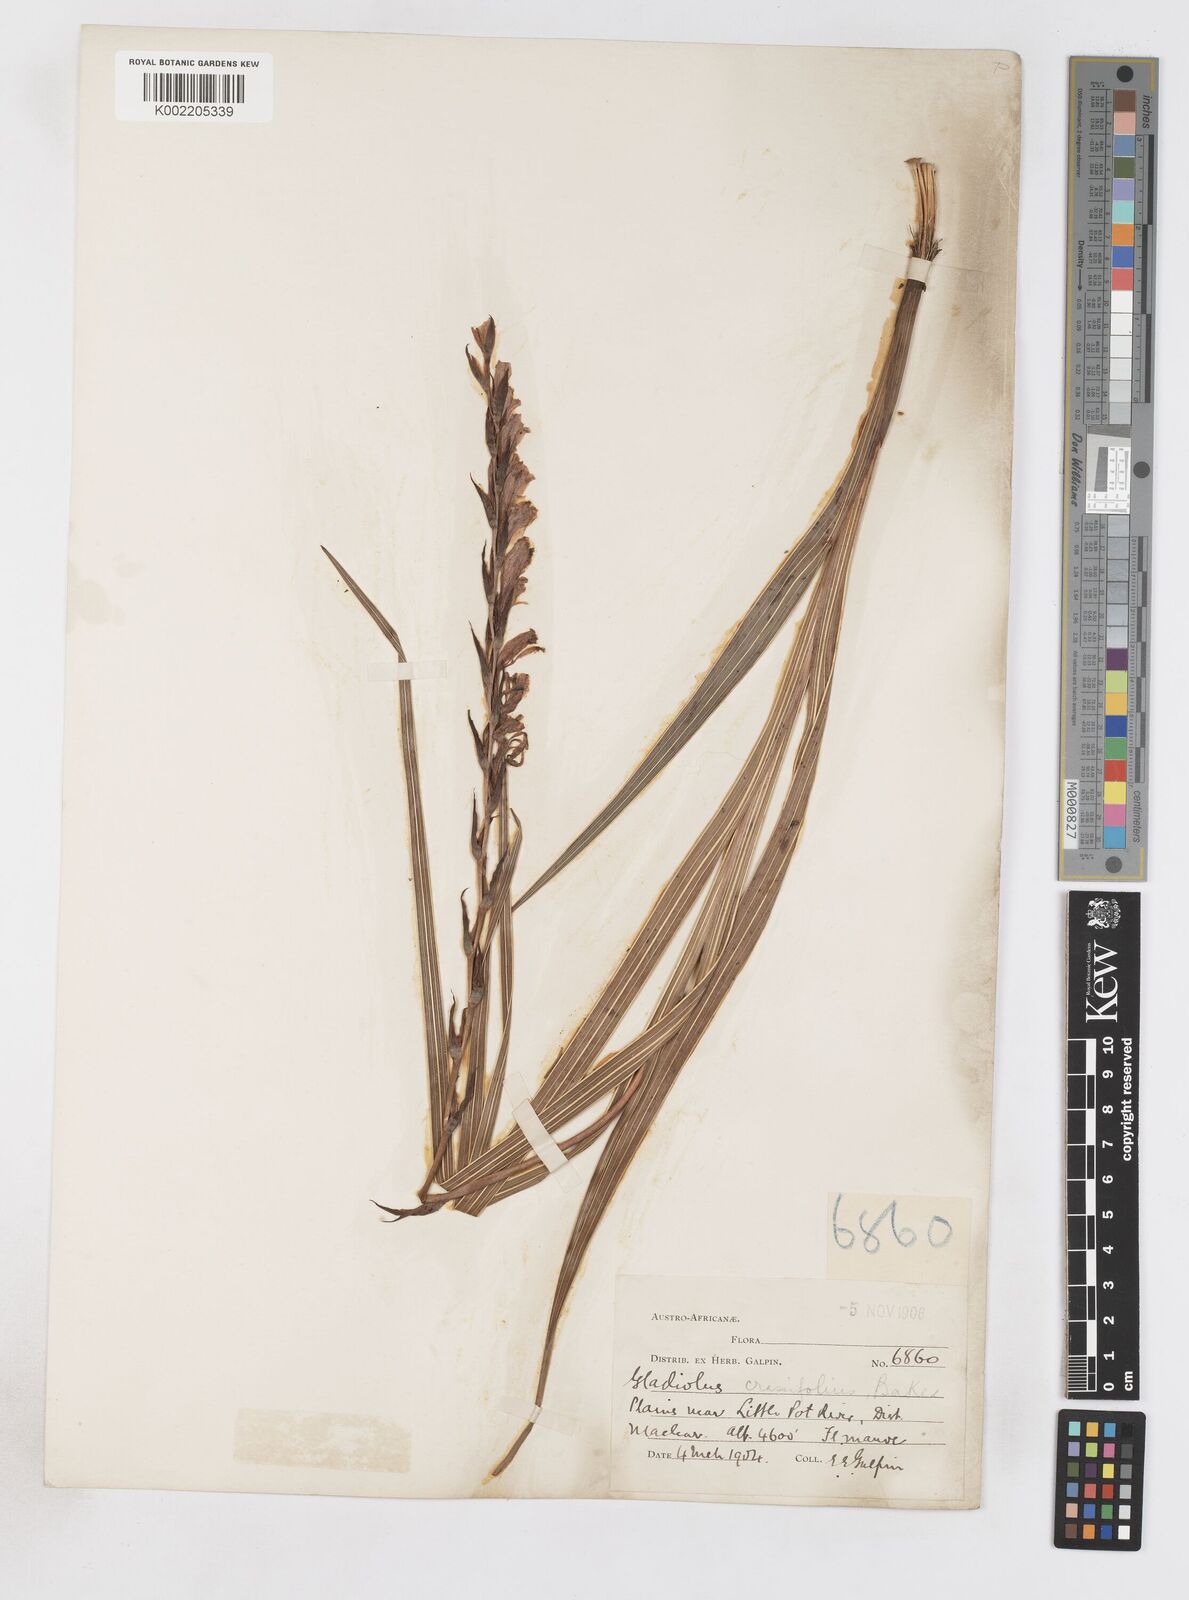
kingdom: Plantae
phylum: Tracheophyta
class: Liliopsida
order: Asparagales
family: Iridaceae
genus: Gladiolus
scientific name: Gladiolus crassifolius
